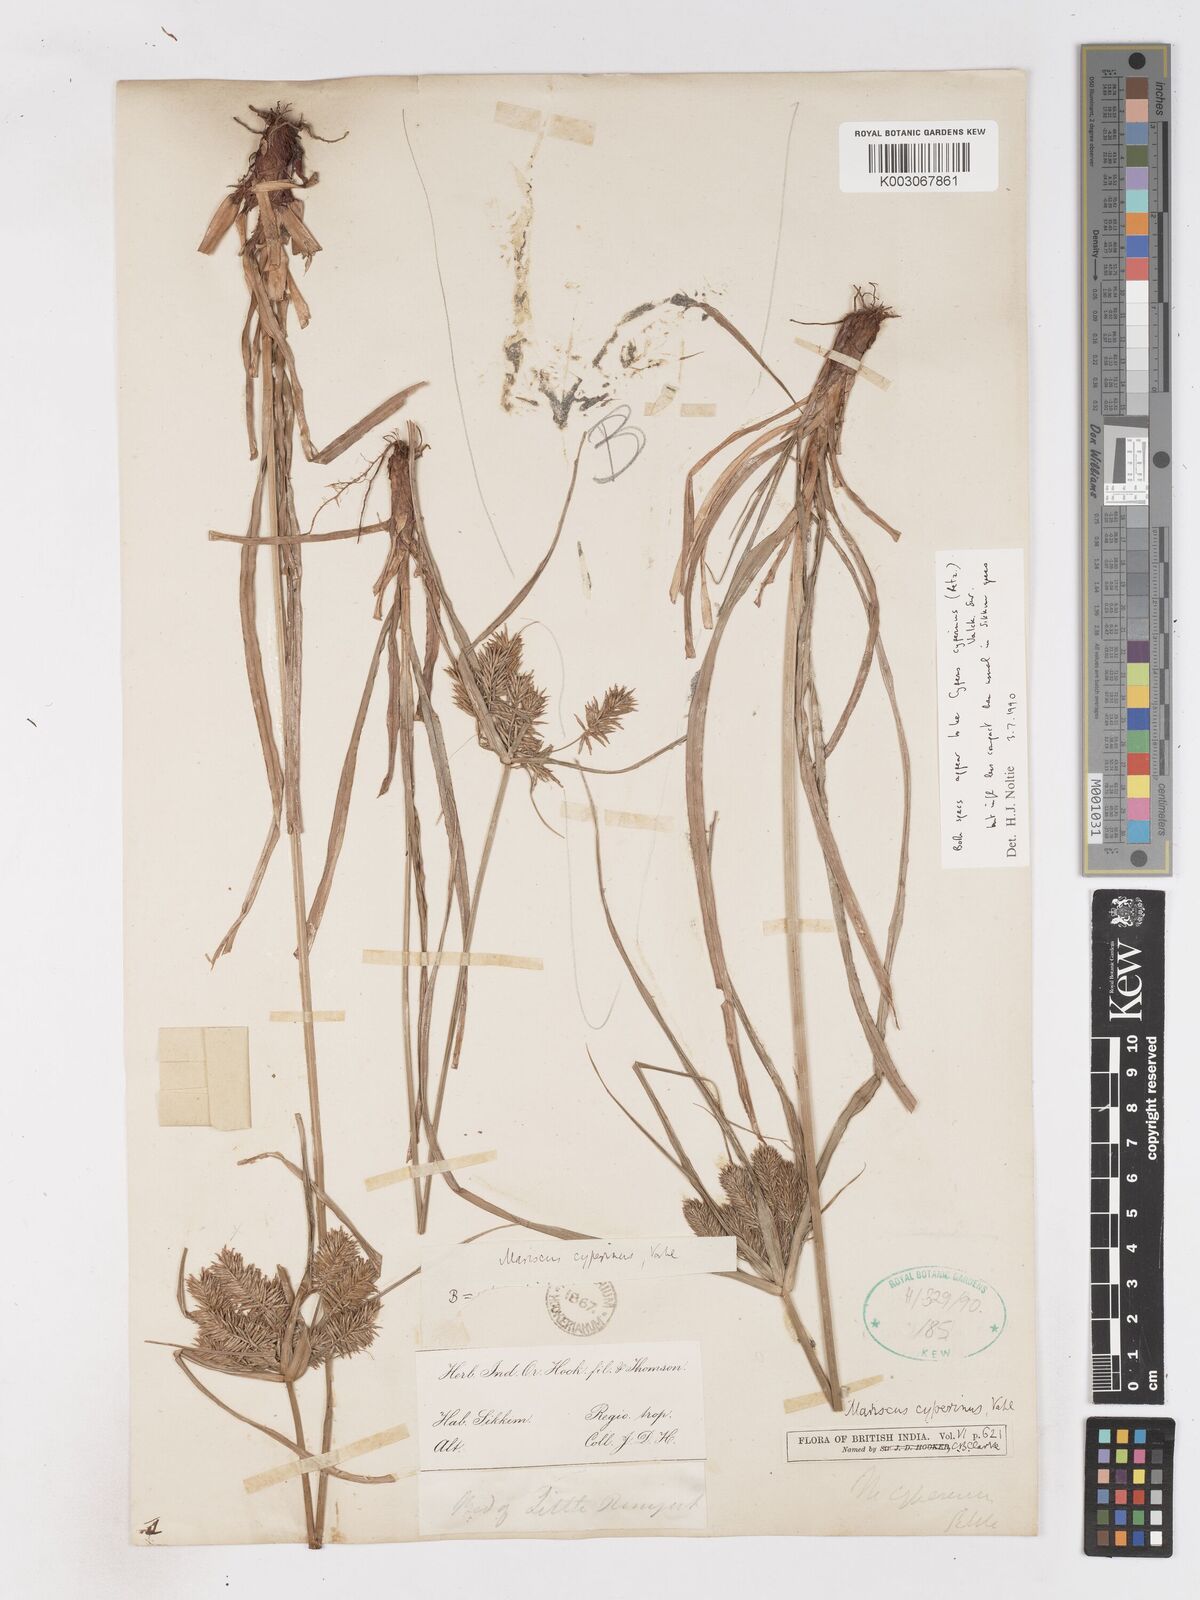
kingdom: Plantae
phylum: Tracheophyta
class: Liliopsida
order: Poales
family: Cyperaceae
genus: Cyperus
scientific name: Cyperus cyperinus
